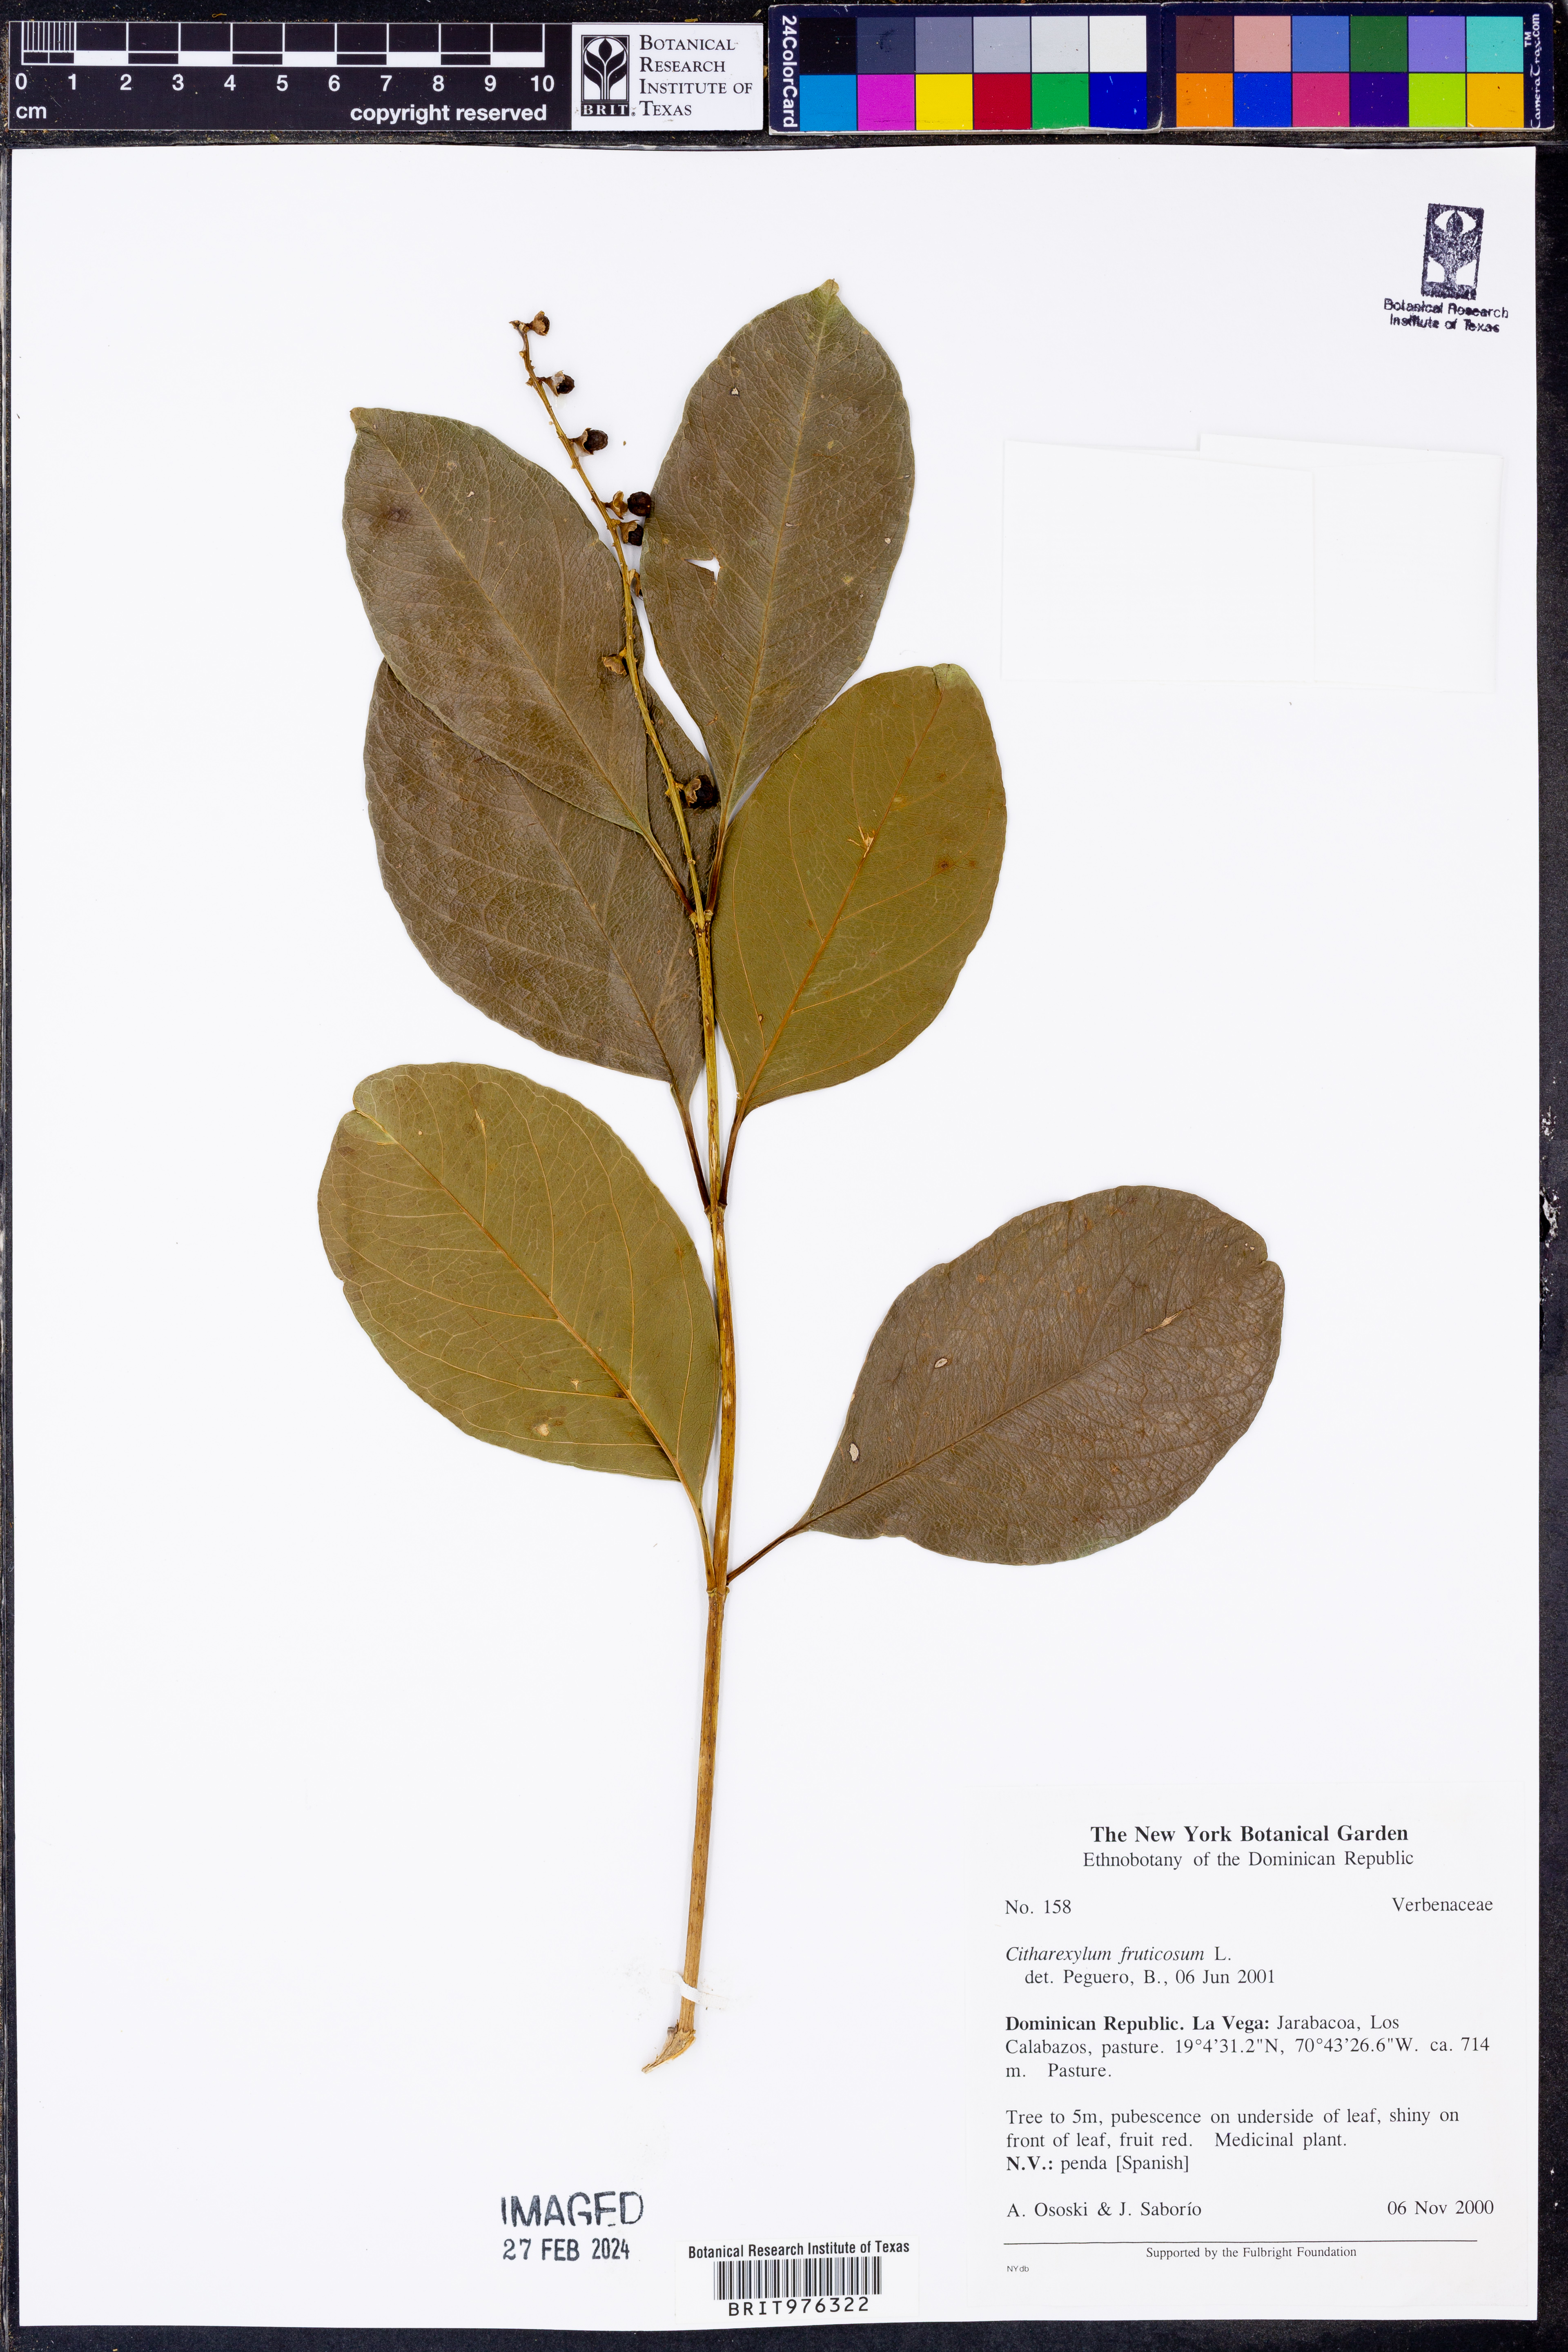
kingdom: Plantae
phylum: Tracheophyta
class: Magnoliopsida
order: Lamiales
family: Verbenaceae
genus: Citharexylum
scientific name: Citharexylum
